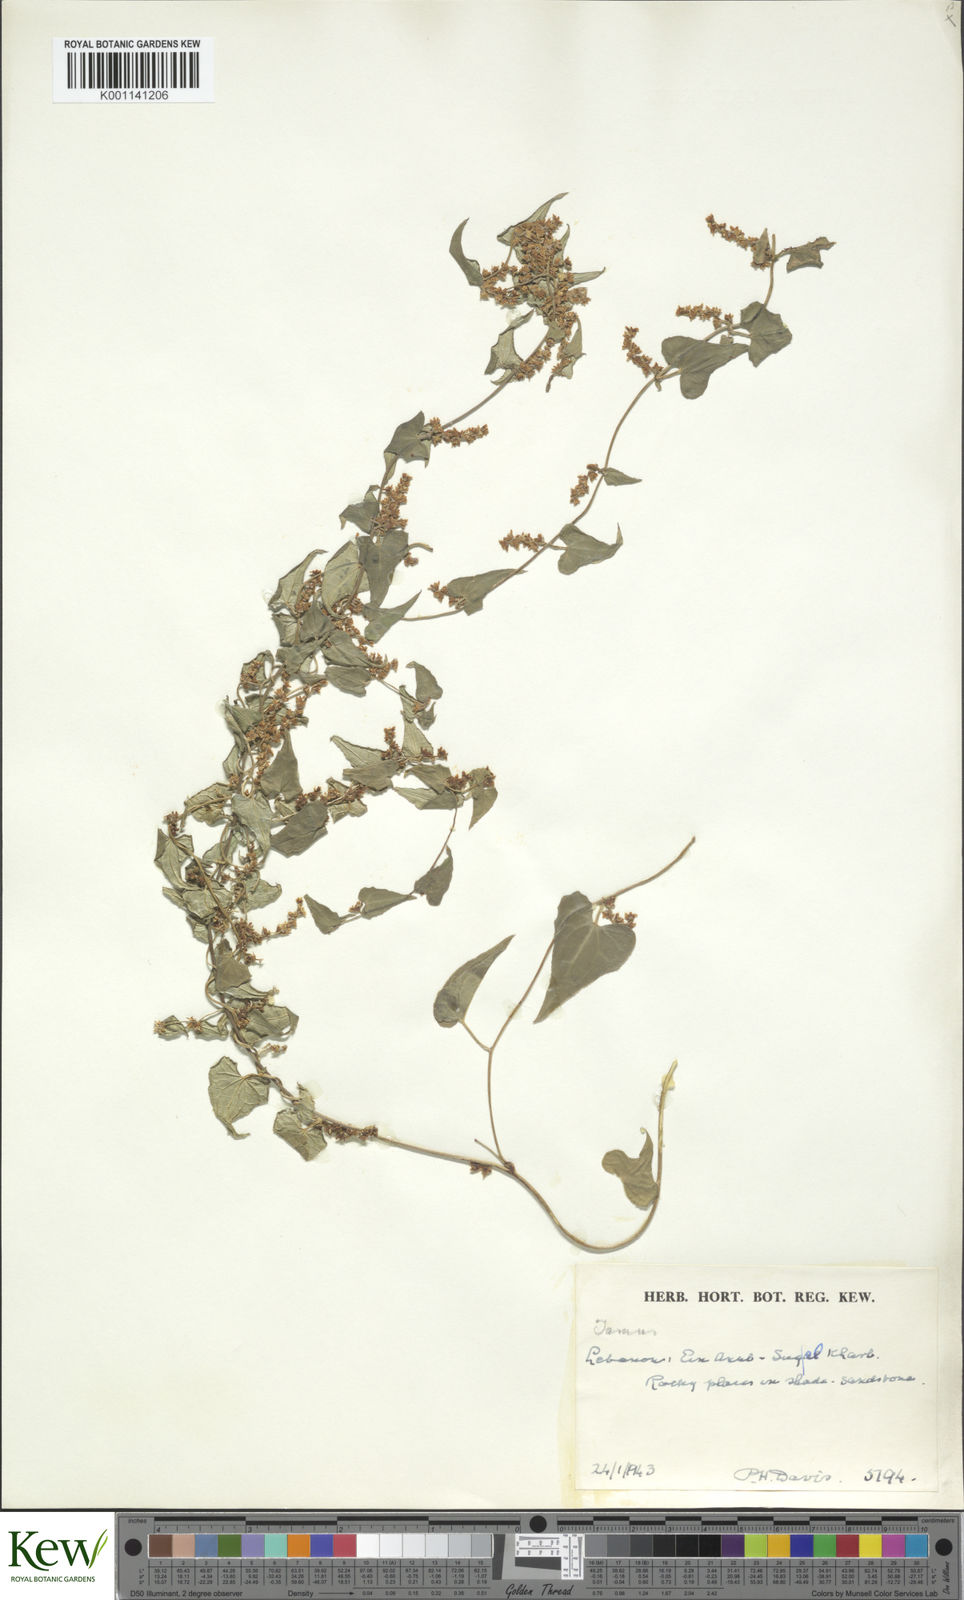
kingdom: Plantae
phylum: Tracheophyta
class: Liliopsida
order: Dioscoreales
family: Dioscoreaceae
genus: Dioscorea
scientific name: Dioscorea communis
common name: Black-bindweed
